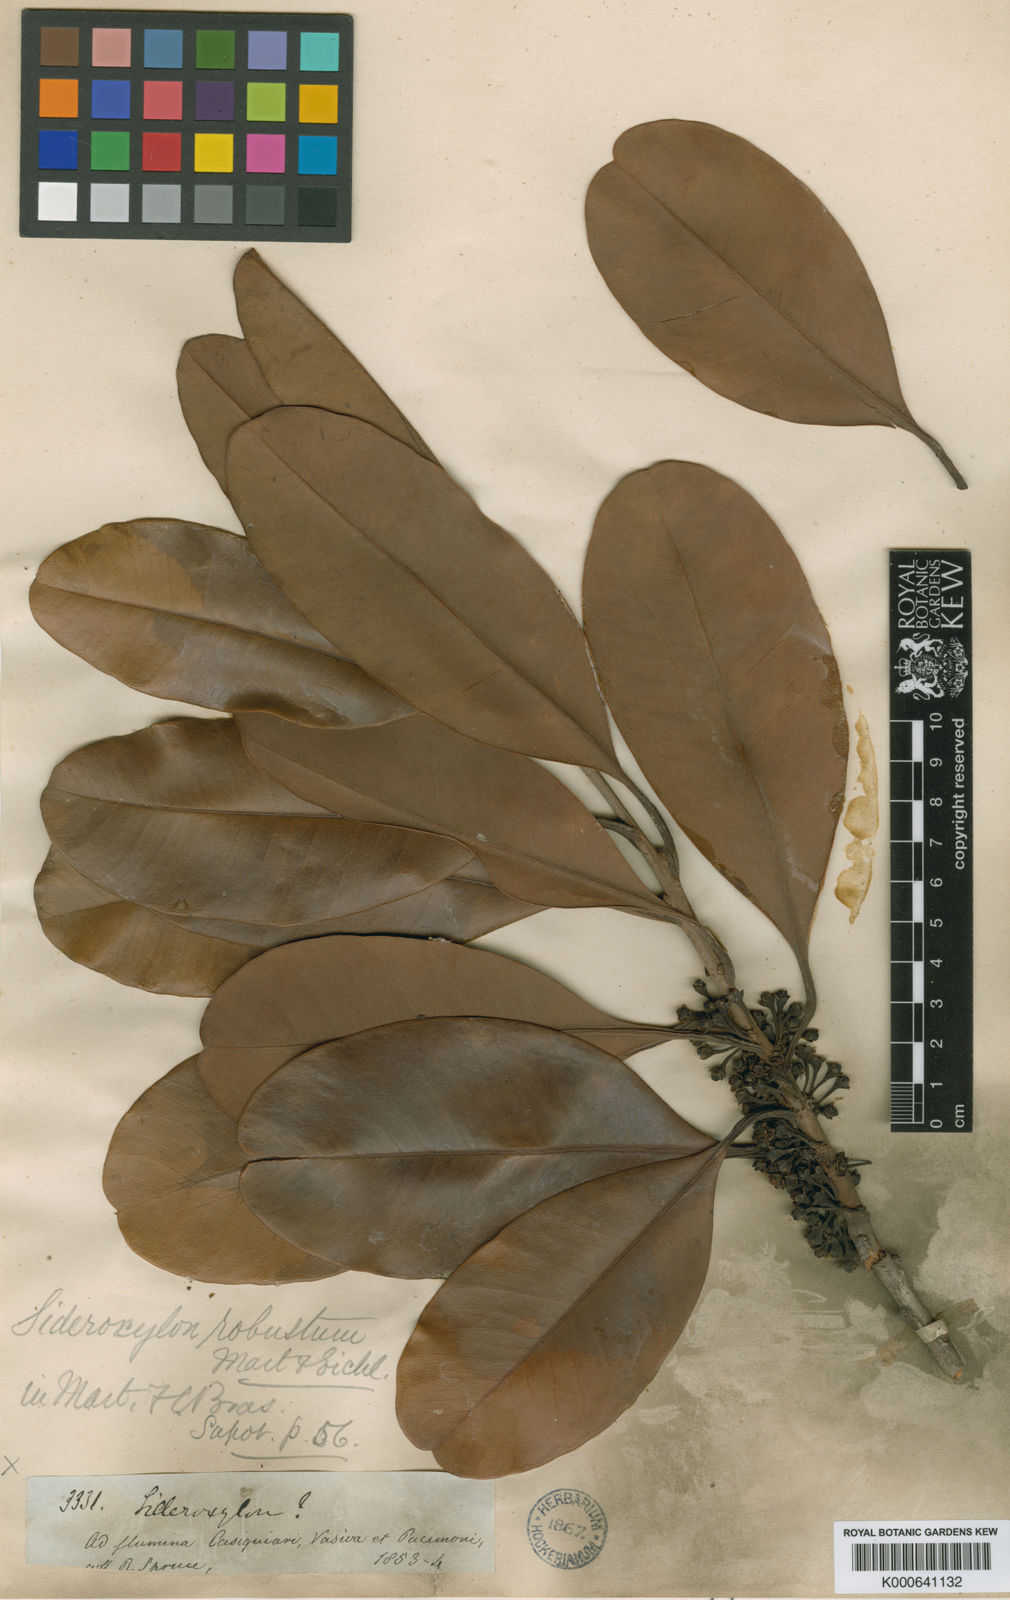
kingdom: Plantae
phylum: Tracheophyta
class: Magnoliopsida
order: Ericales
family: Sapotaceae
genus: Pouteria
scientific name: Pouteria cuspidata
